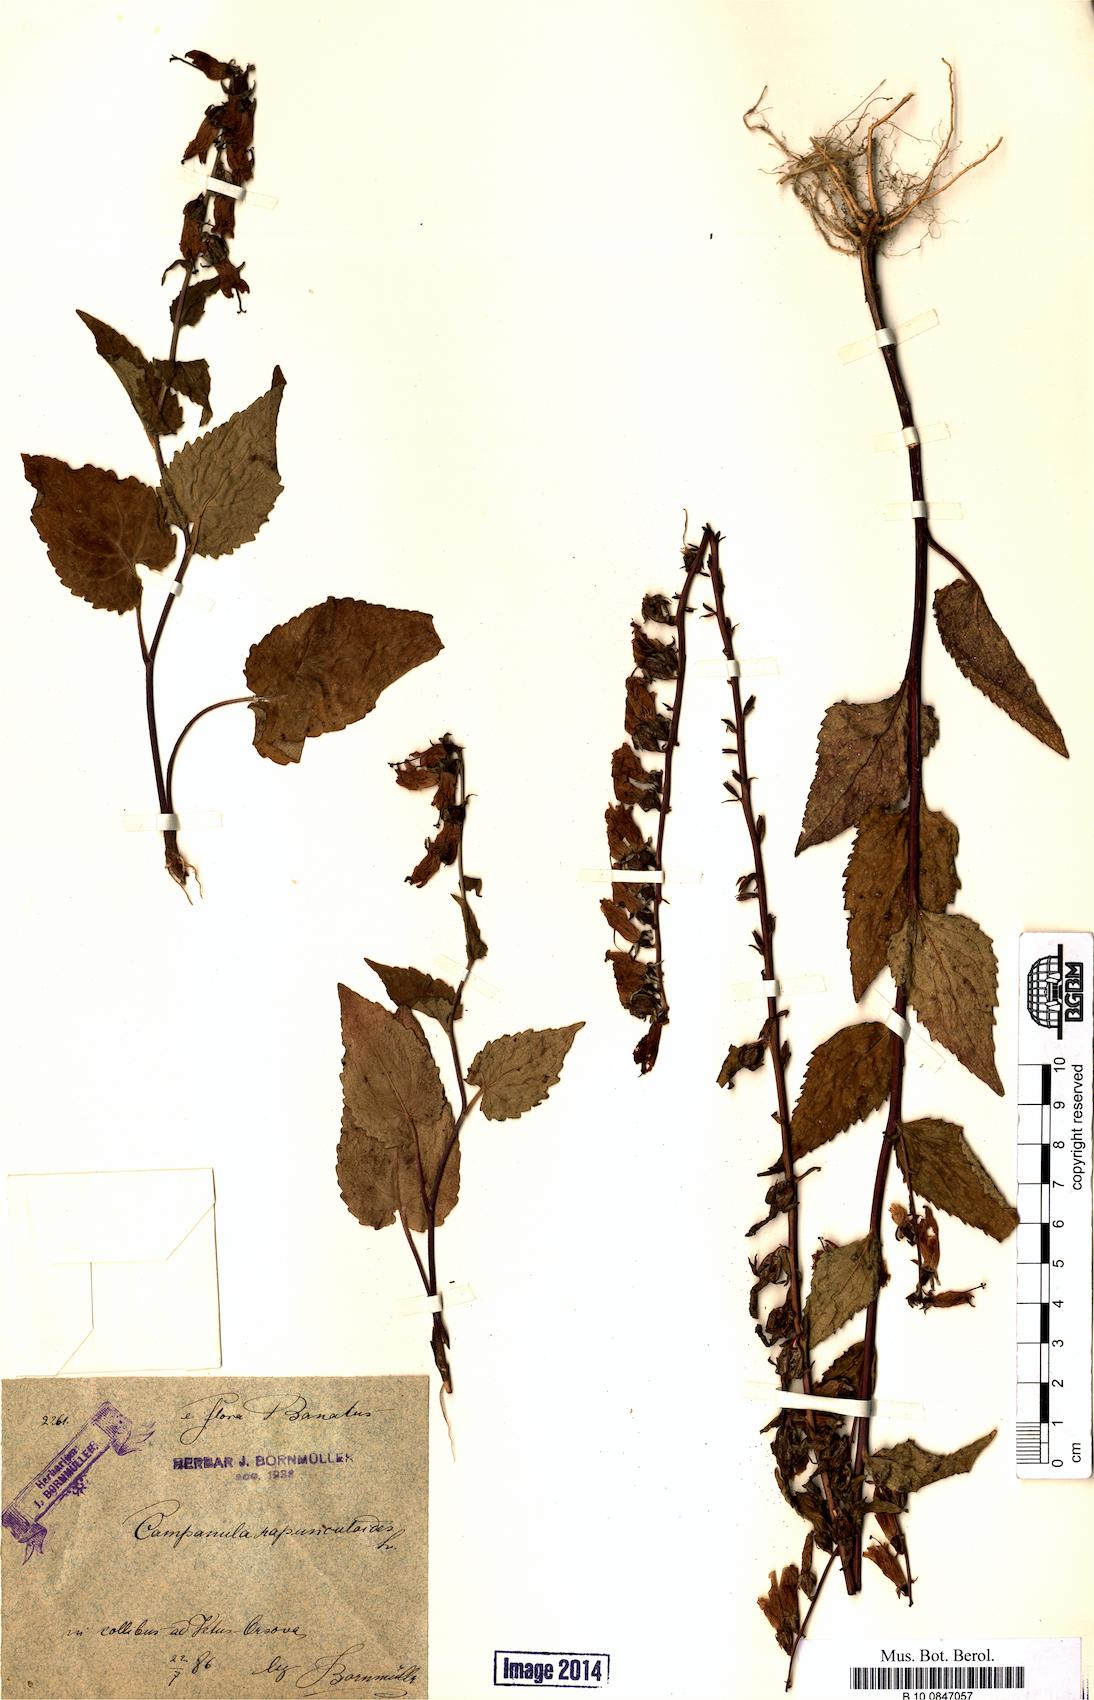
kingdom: Plantae
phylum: Tracheophyta
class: Magnoliopsida
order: Asterales
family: Campanulaceae
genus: Campanula
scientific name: Campanula rapunculoides
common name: Creeping bellflower
